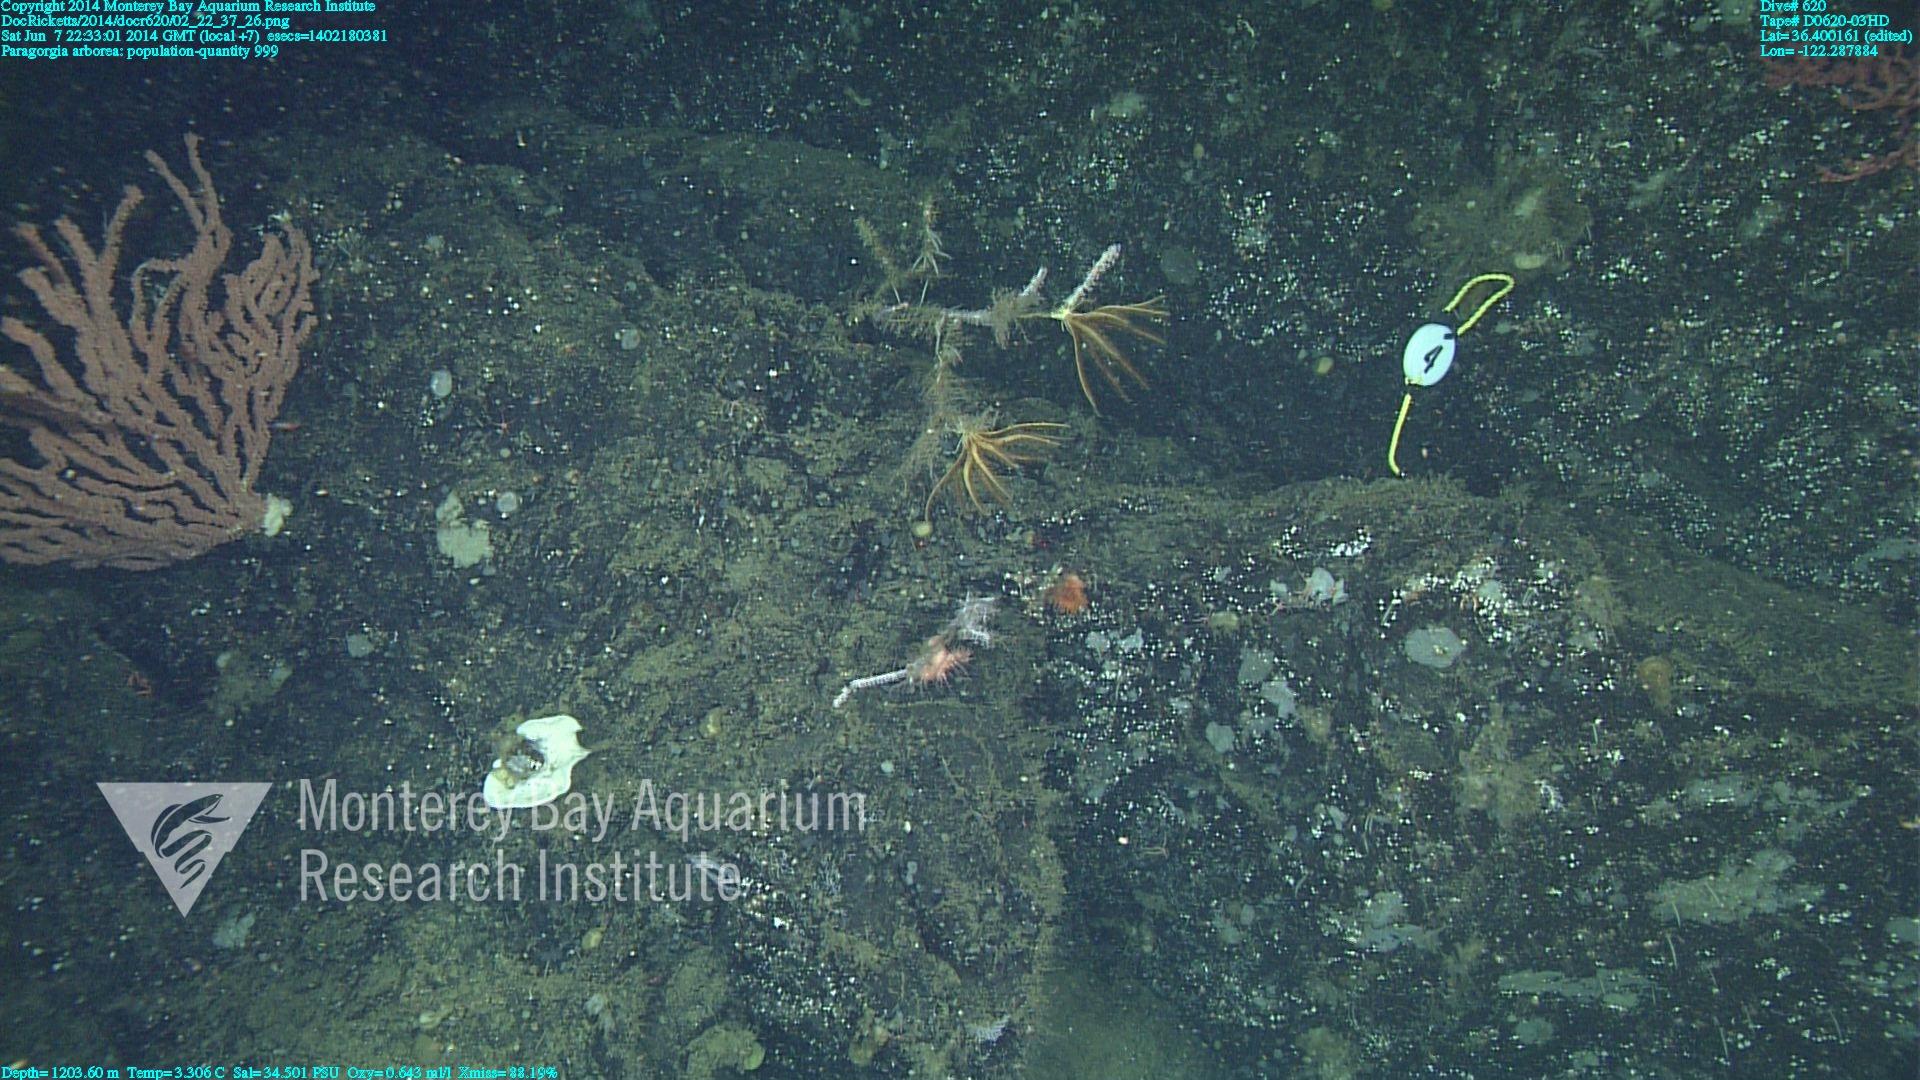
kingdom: Animalia
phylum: Cnidaria
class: Anthozoa
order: Scleralcyonacea
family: Coralliidae
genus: Paragorgia
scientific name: Paragorgia arborea
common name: Bubble gum coral
